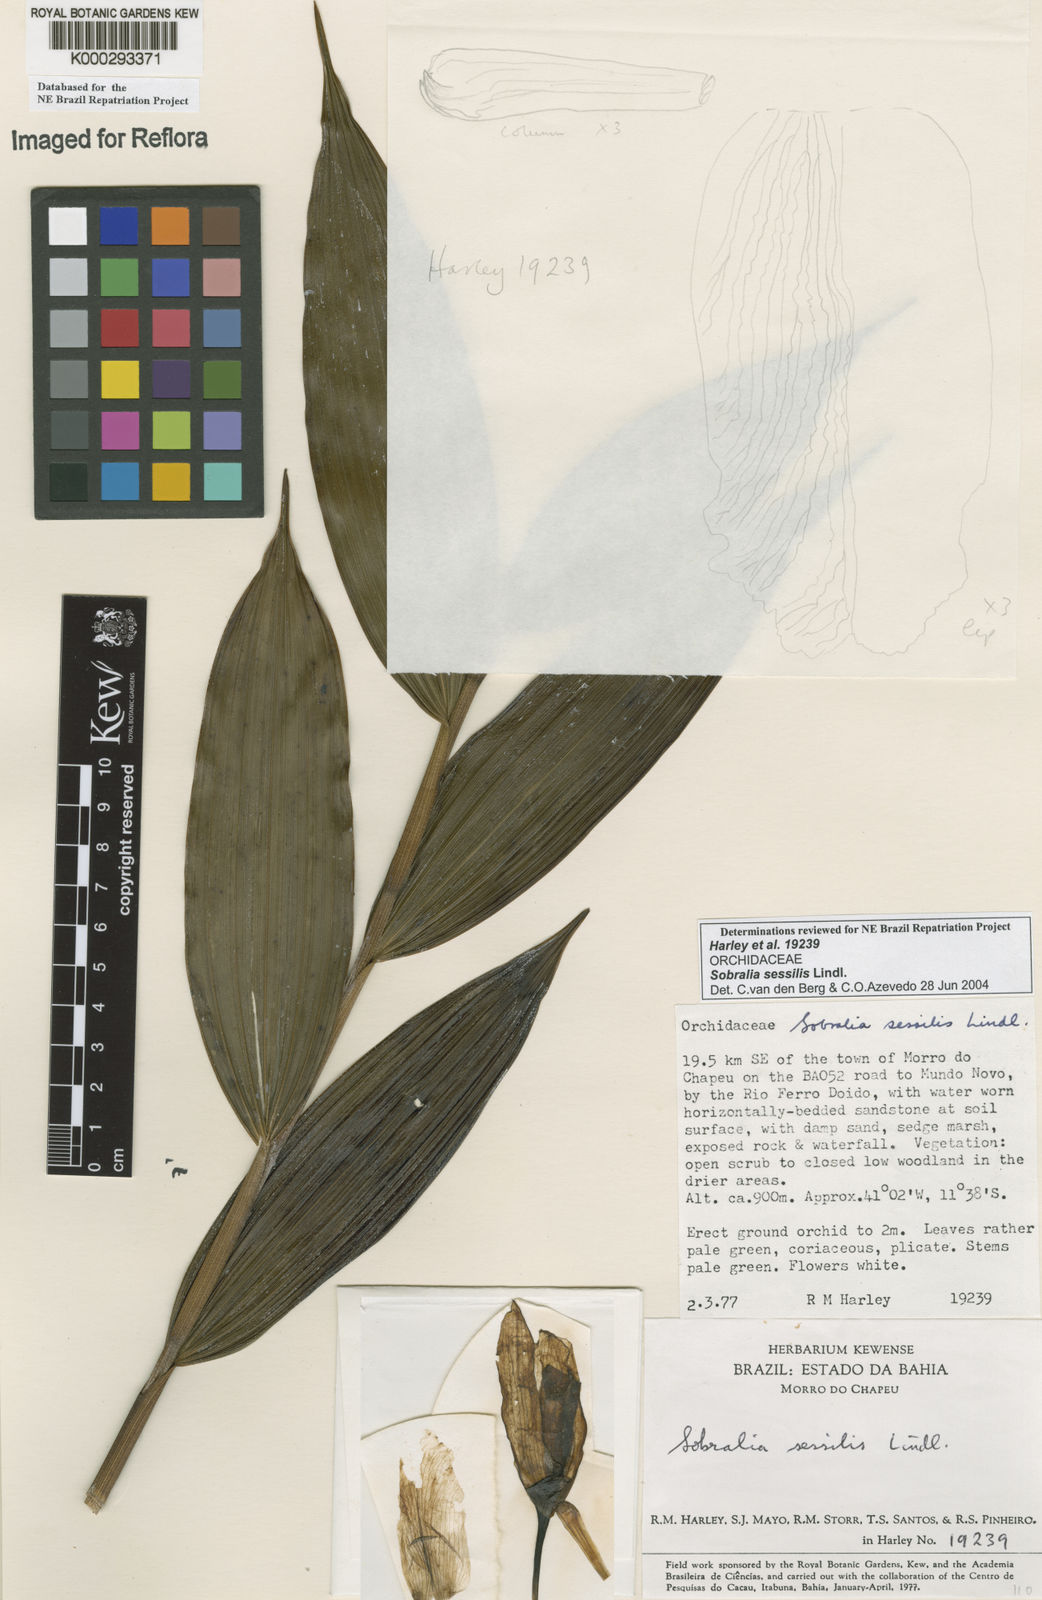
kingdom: Plantae
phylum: Tracheophyta
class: Liliopsida
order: Asparagales
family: Orchidaceae
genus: Sobralia
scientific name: Sobralia sessilis
